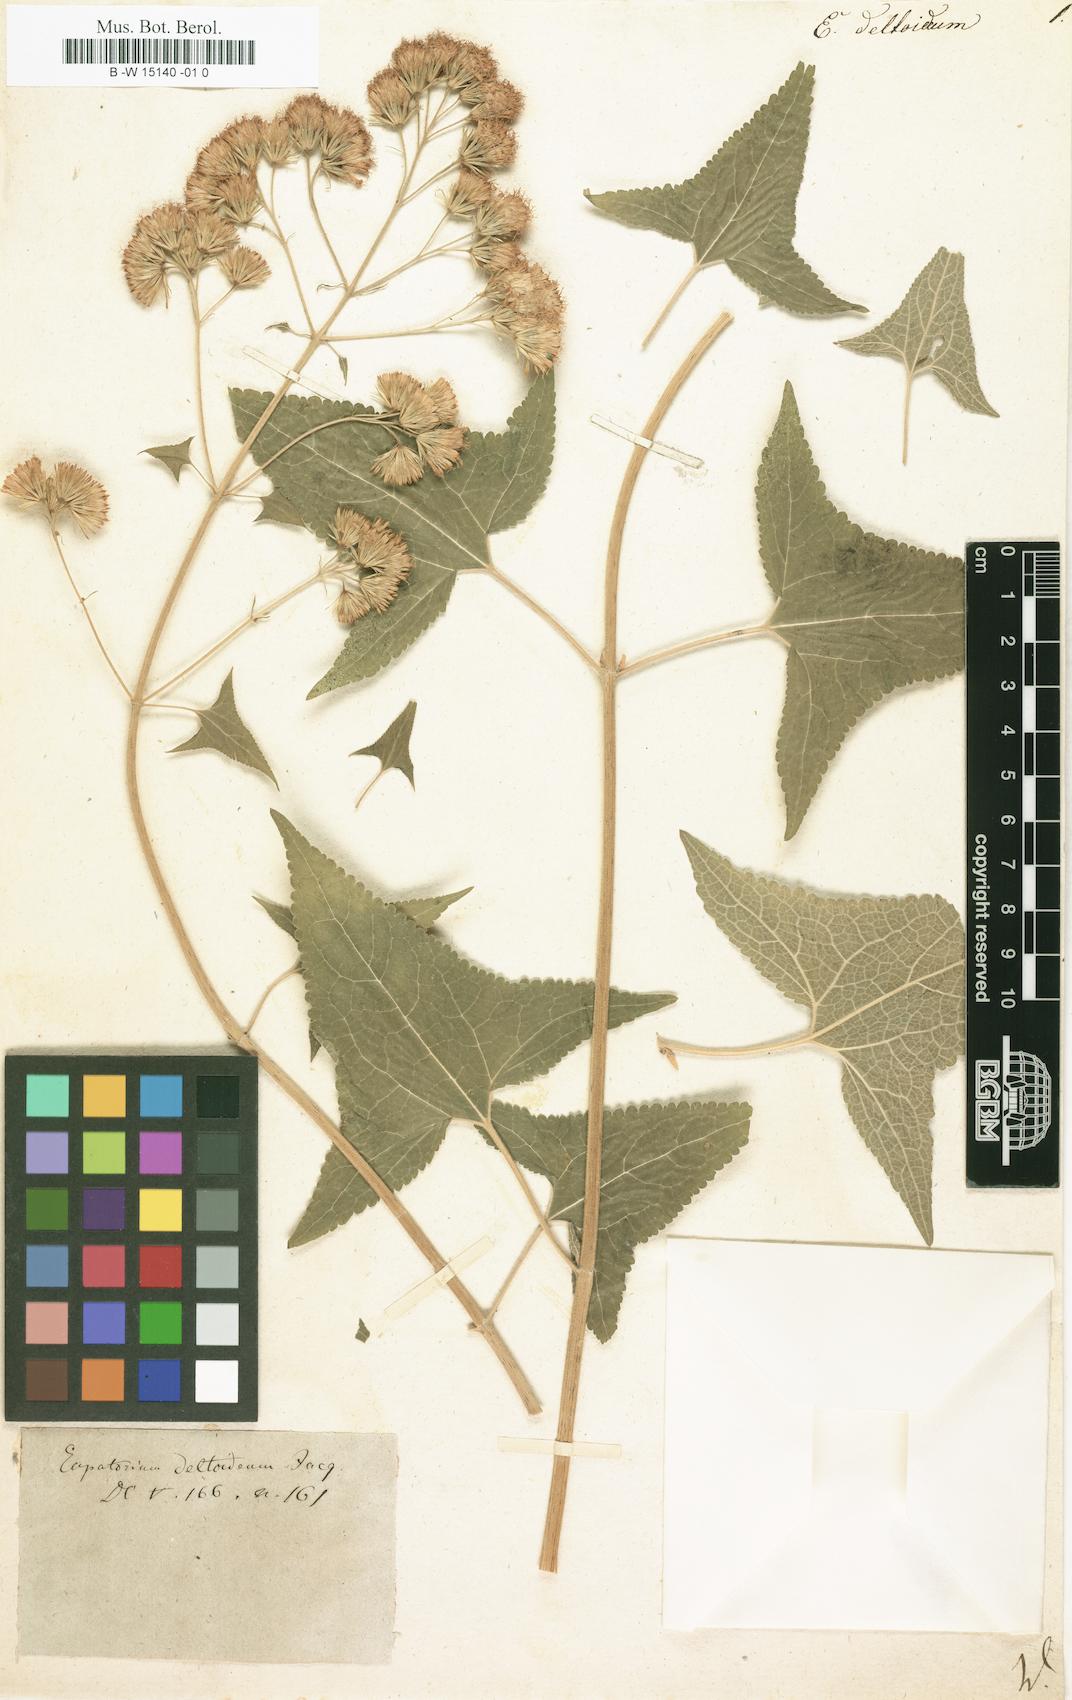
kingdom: Plantae
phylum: Tracheophyta
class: Magnoliopsida
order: Asterales
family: Asteraceae
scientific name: Asteraceae
